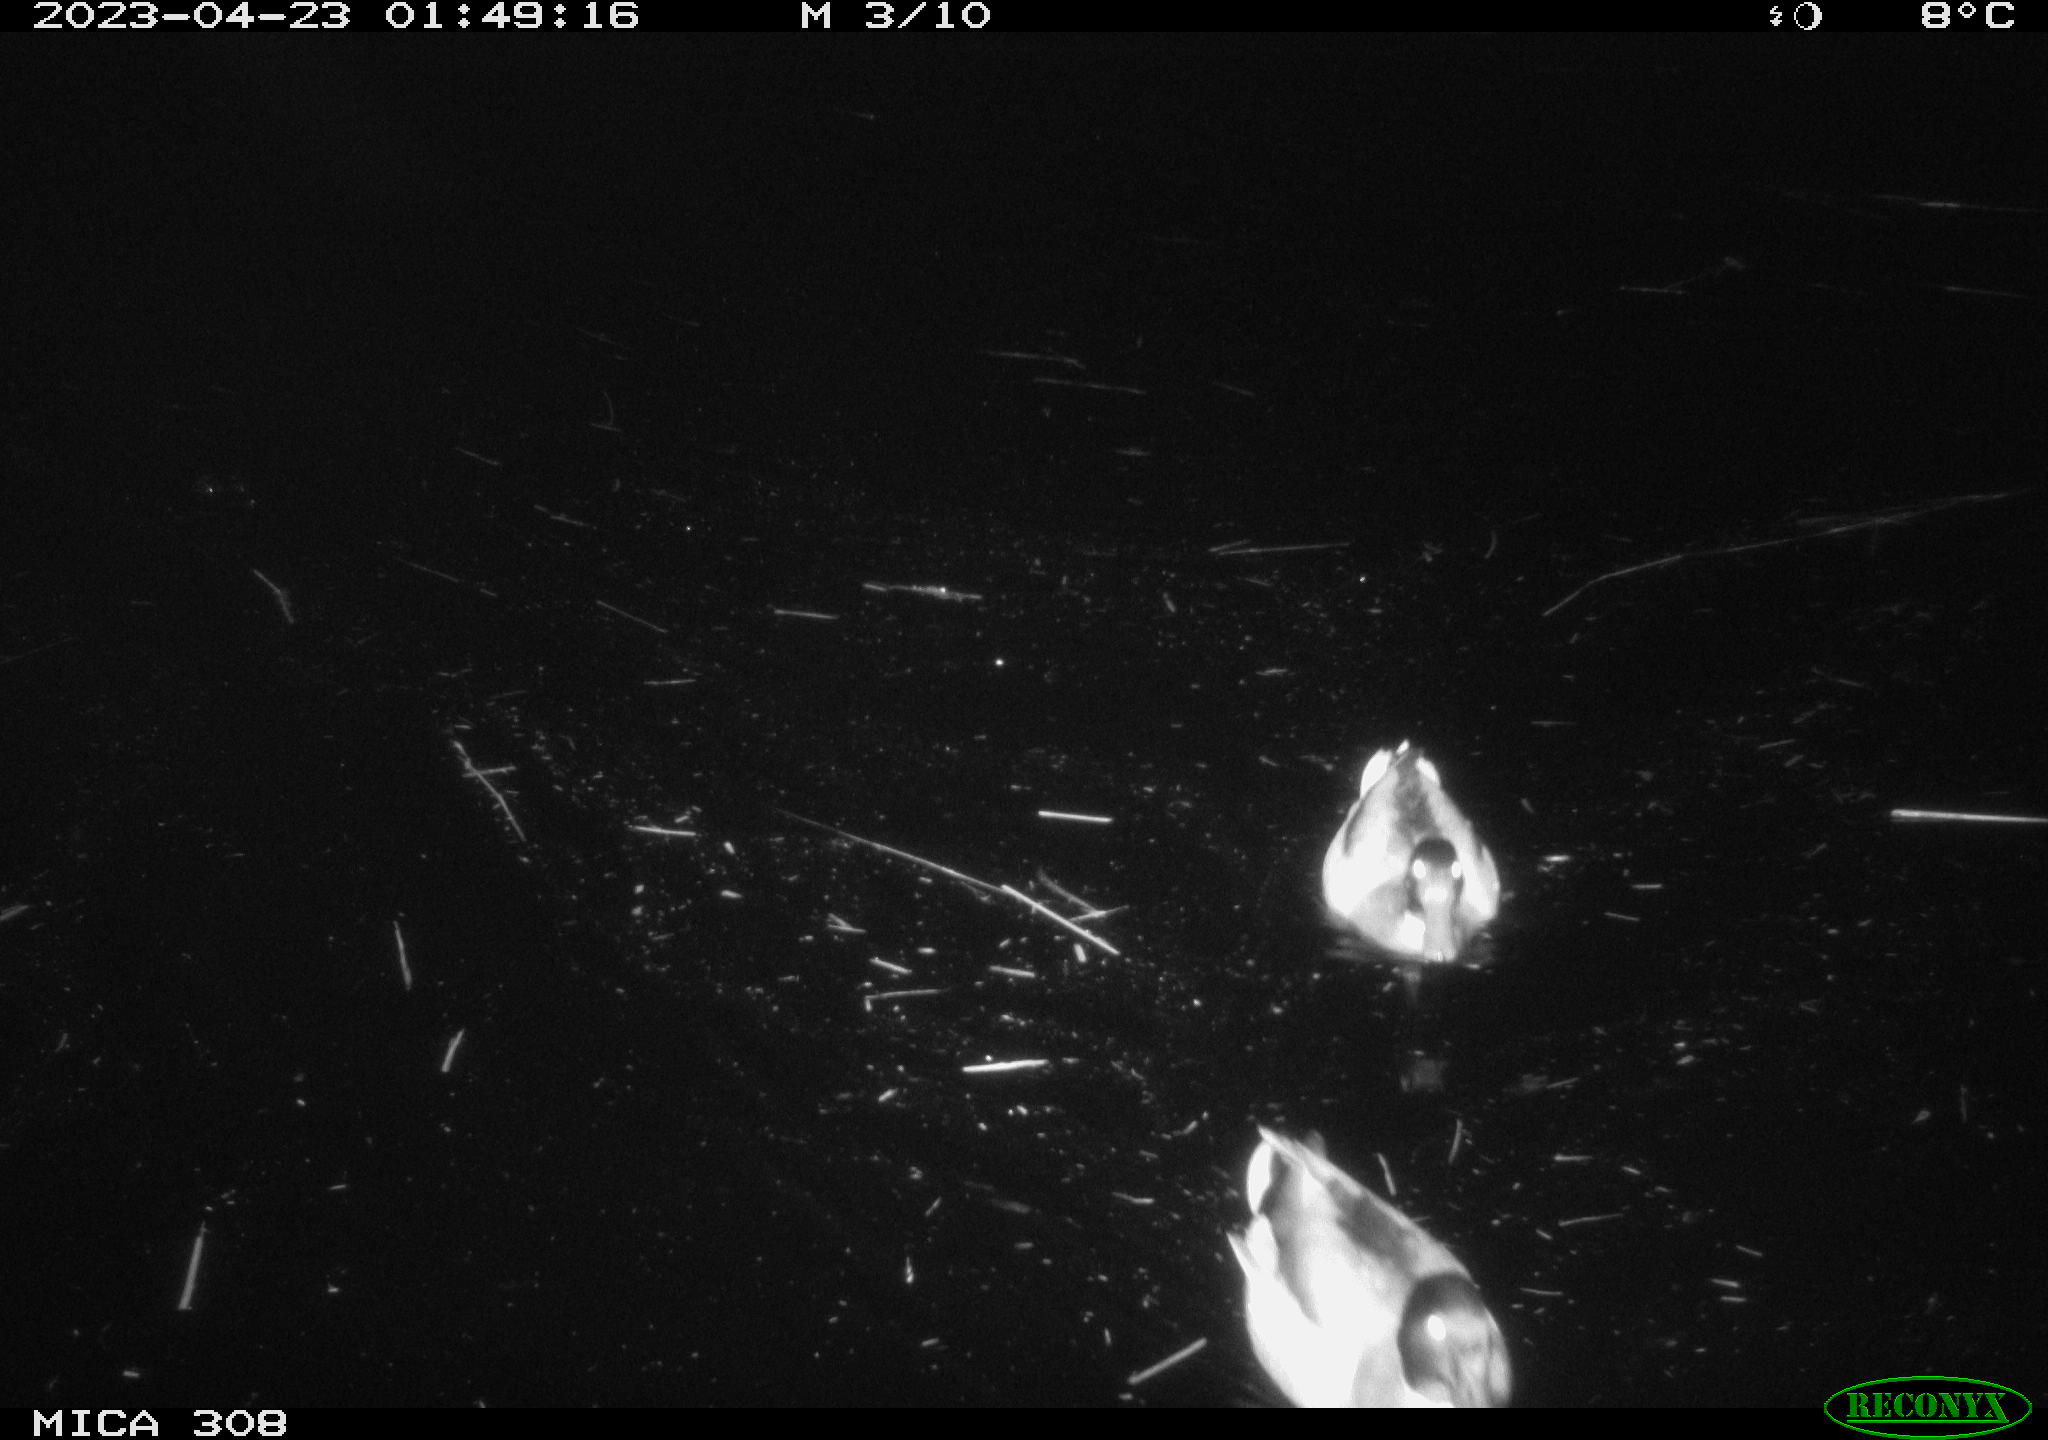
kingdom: Animalia
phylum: Chordata
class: Aves
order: Anseriformes
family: Anatidae
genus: Anas
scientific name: Anas
